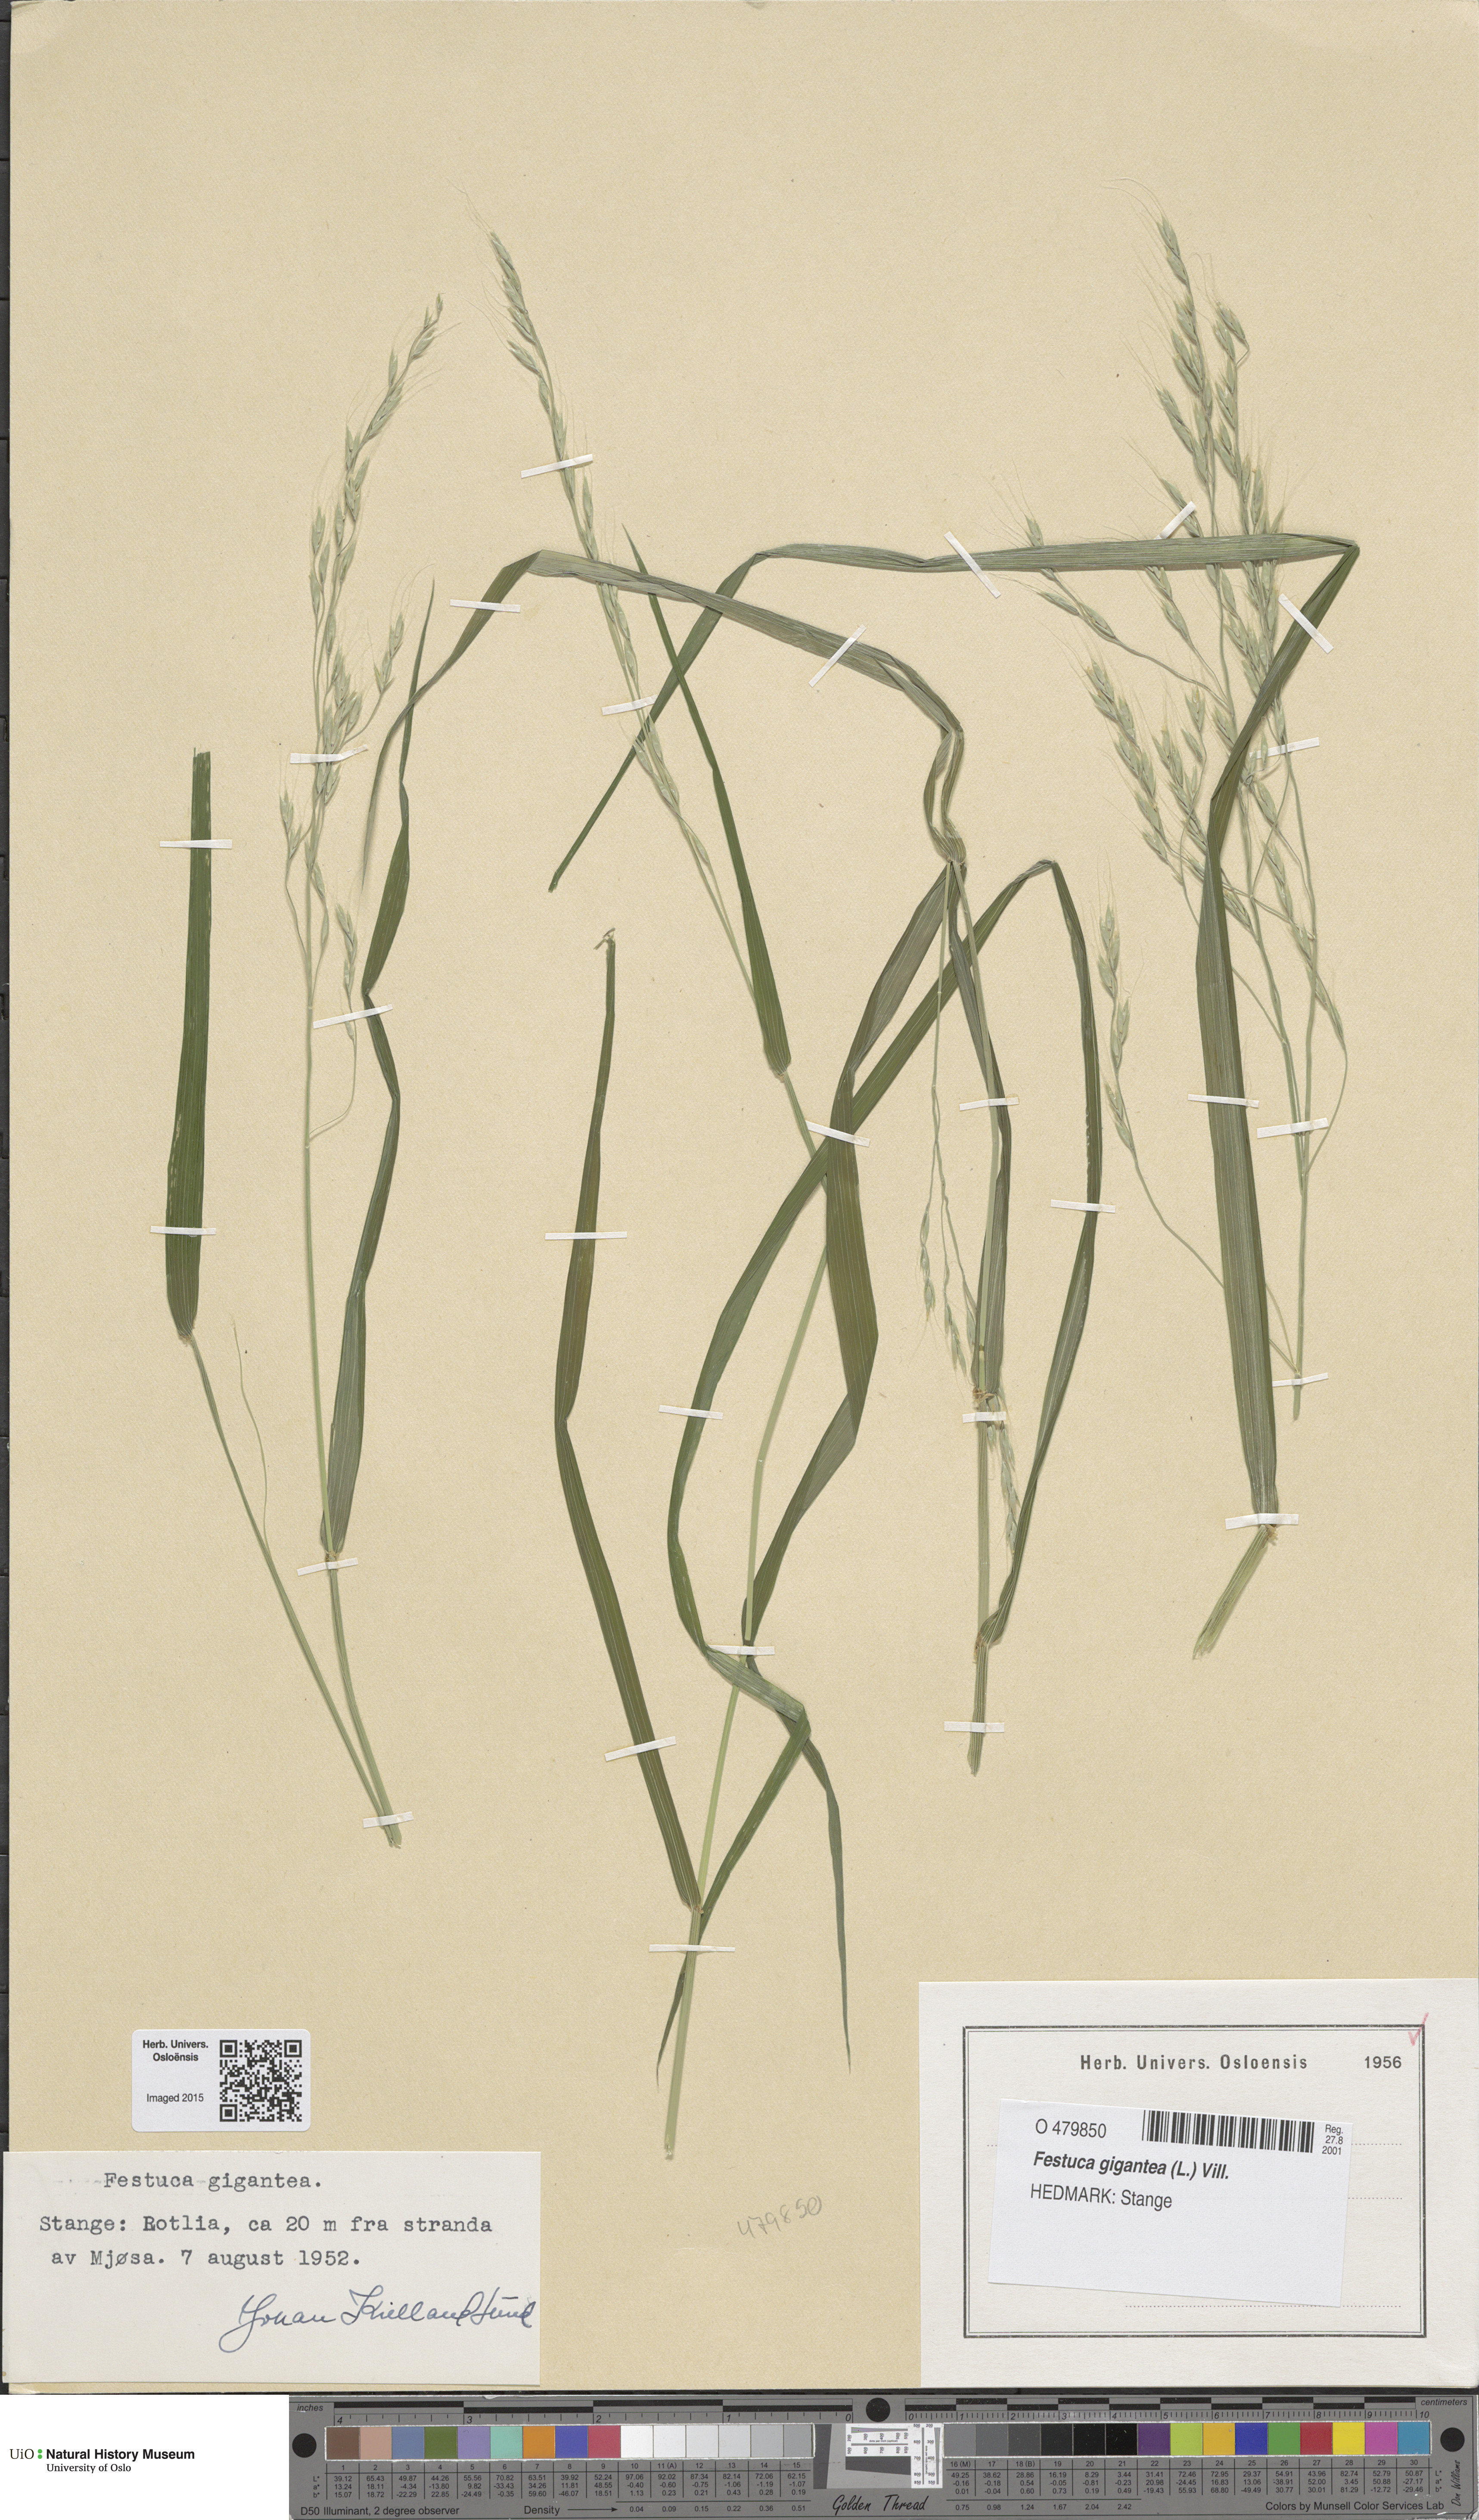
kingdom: Plantae
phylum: Tracheophyta
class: Liliopsida
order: Poales
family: Poaceae
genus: Lolium
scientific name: Lolium giganteum
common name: Giant fescue
